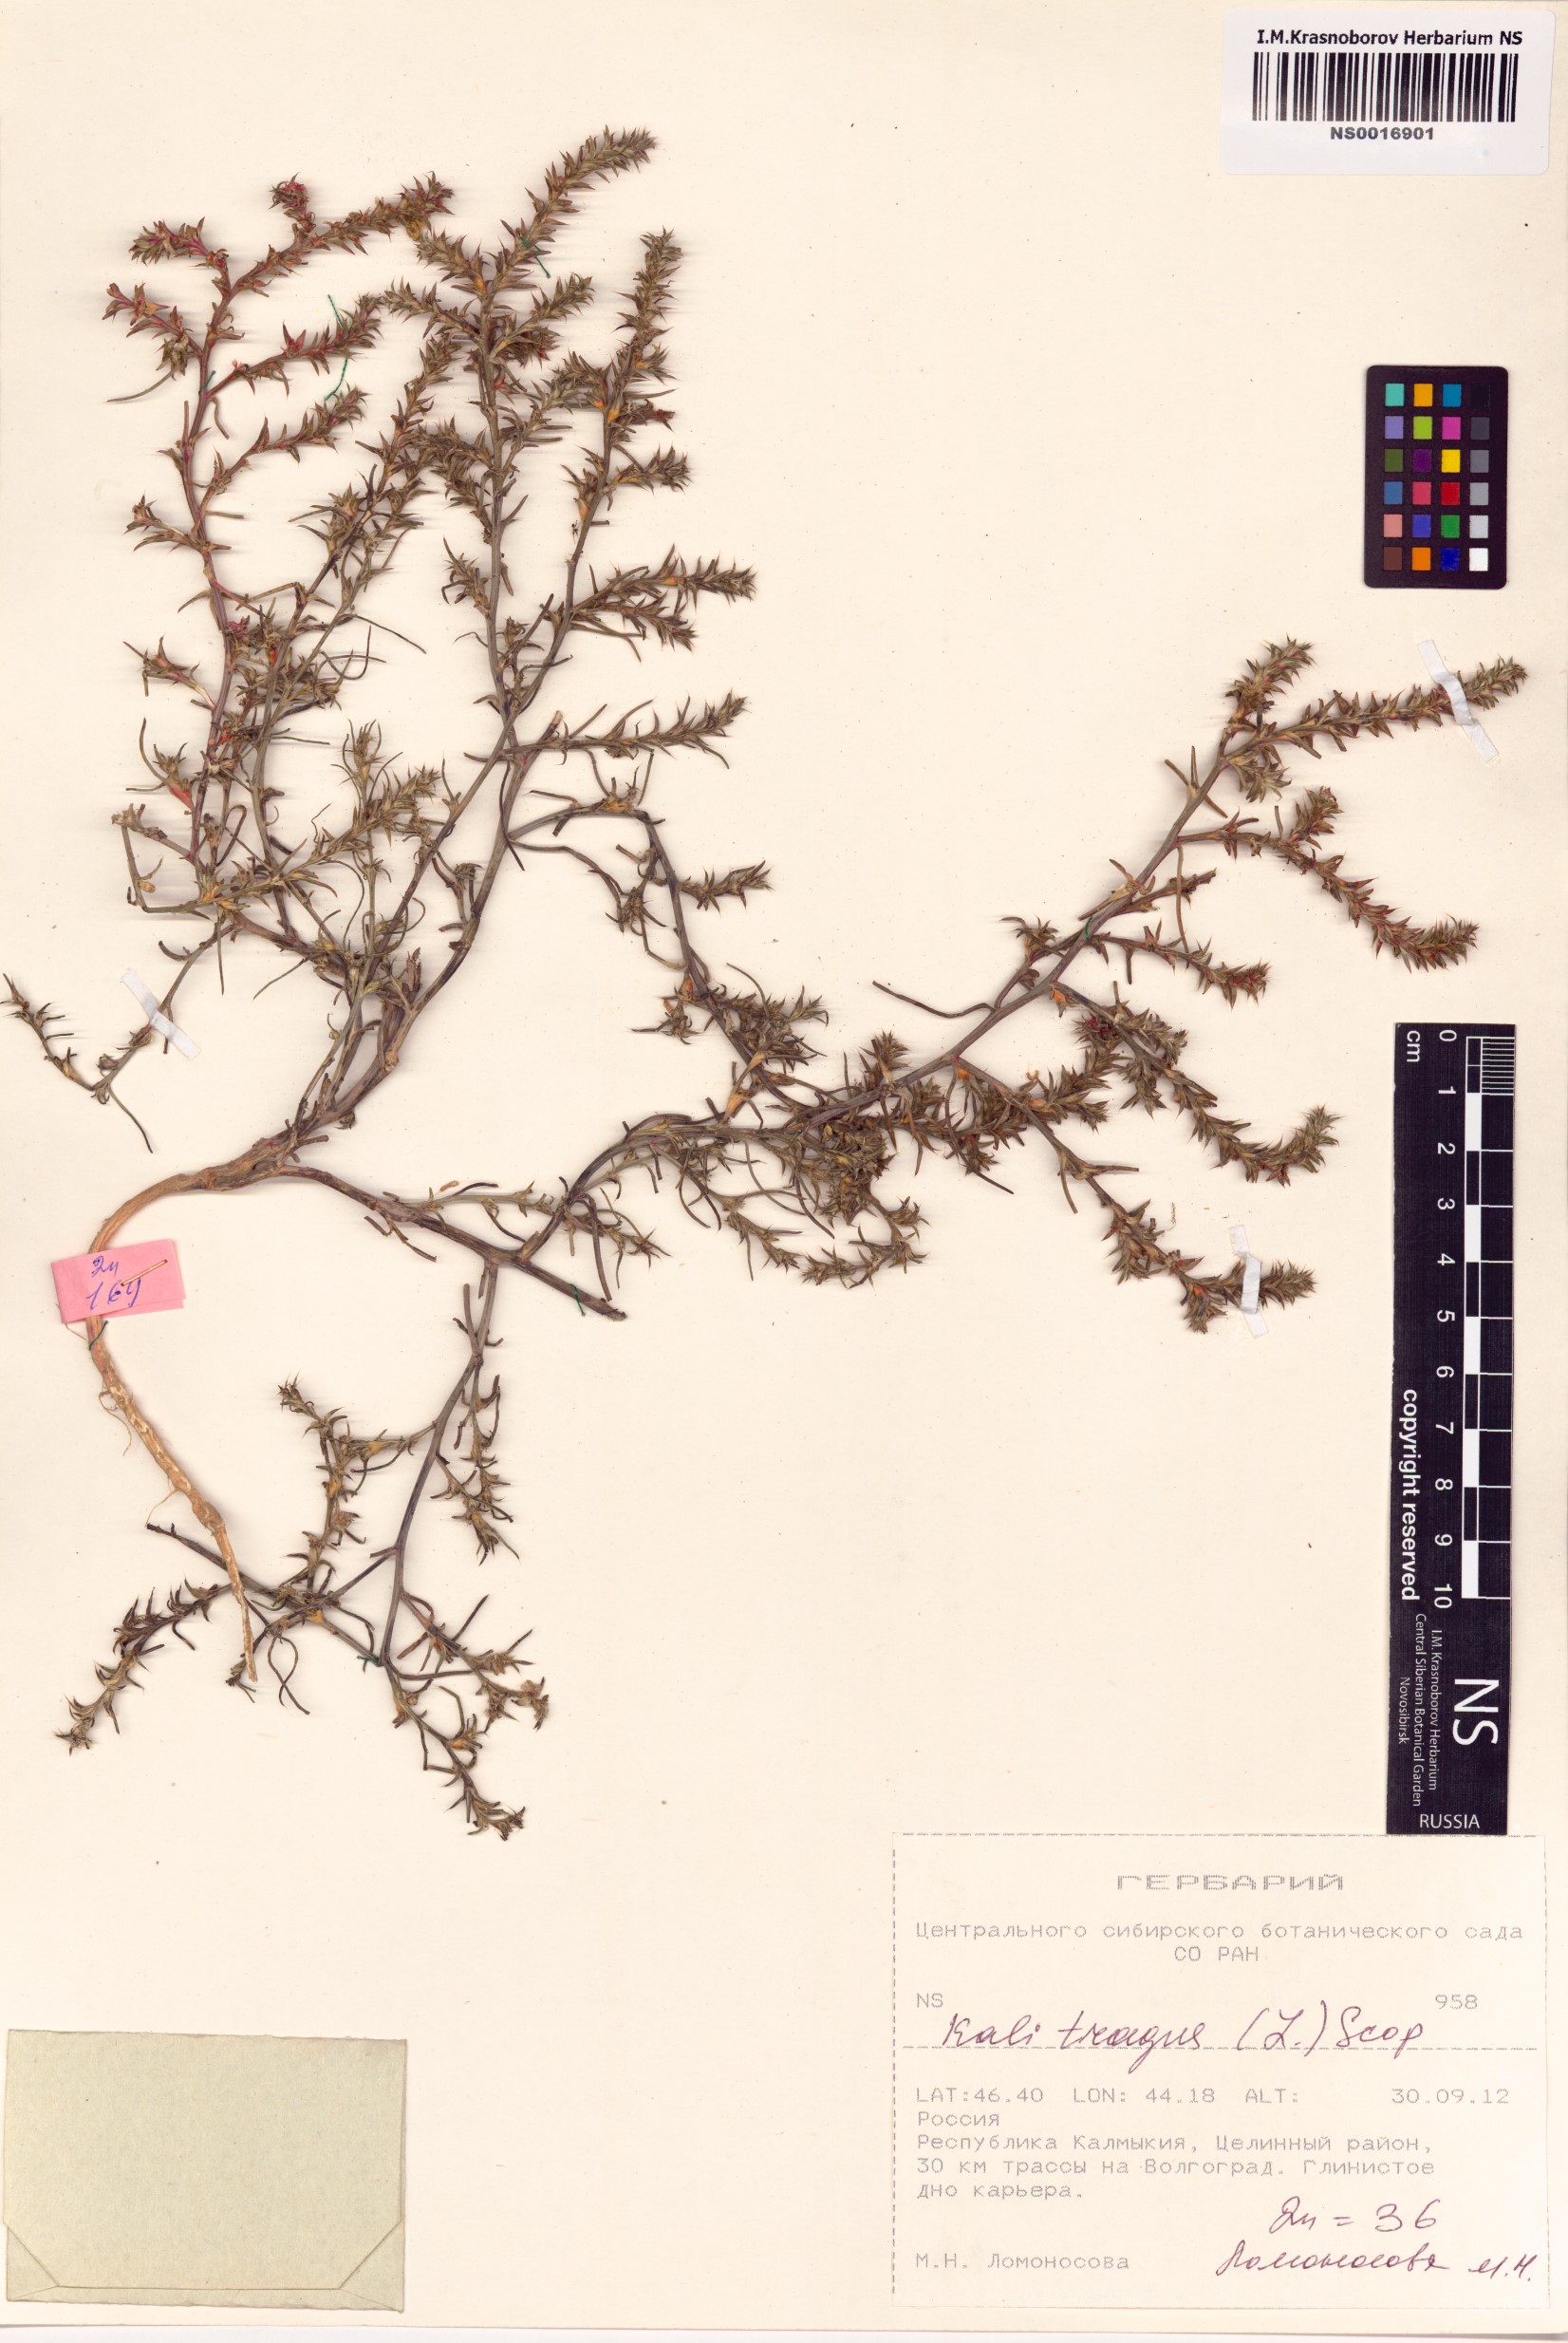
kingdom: Plantae
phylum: Tracheophyta
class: Magnoliopsida
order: Caryophyllales
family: Amaranthaceae
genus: Salsola
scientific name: Salsola tragus
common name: Prickly russian thistle
